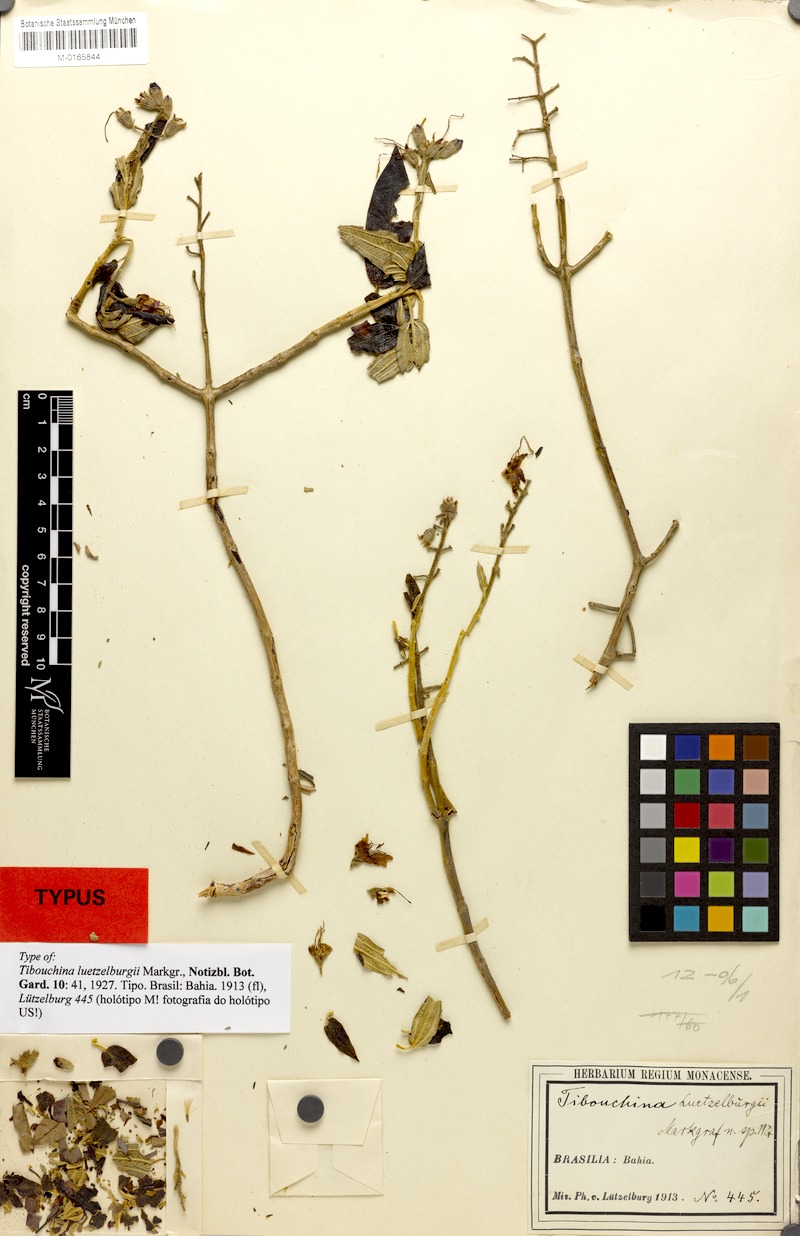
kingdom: Plantae
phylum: Tracheophyta
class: Magnoliopsida
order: Myrtales
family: Melastomataceae
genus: Pleroma
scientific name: Pleroma luetzelburgii
